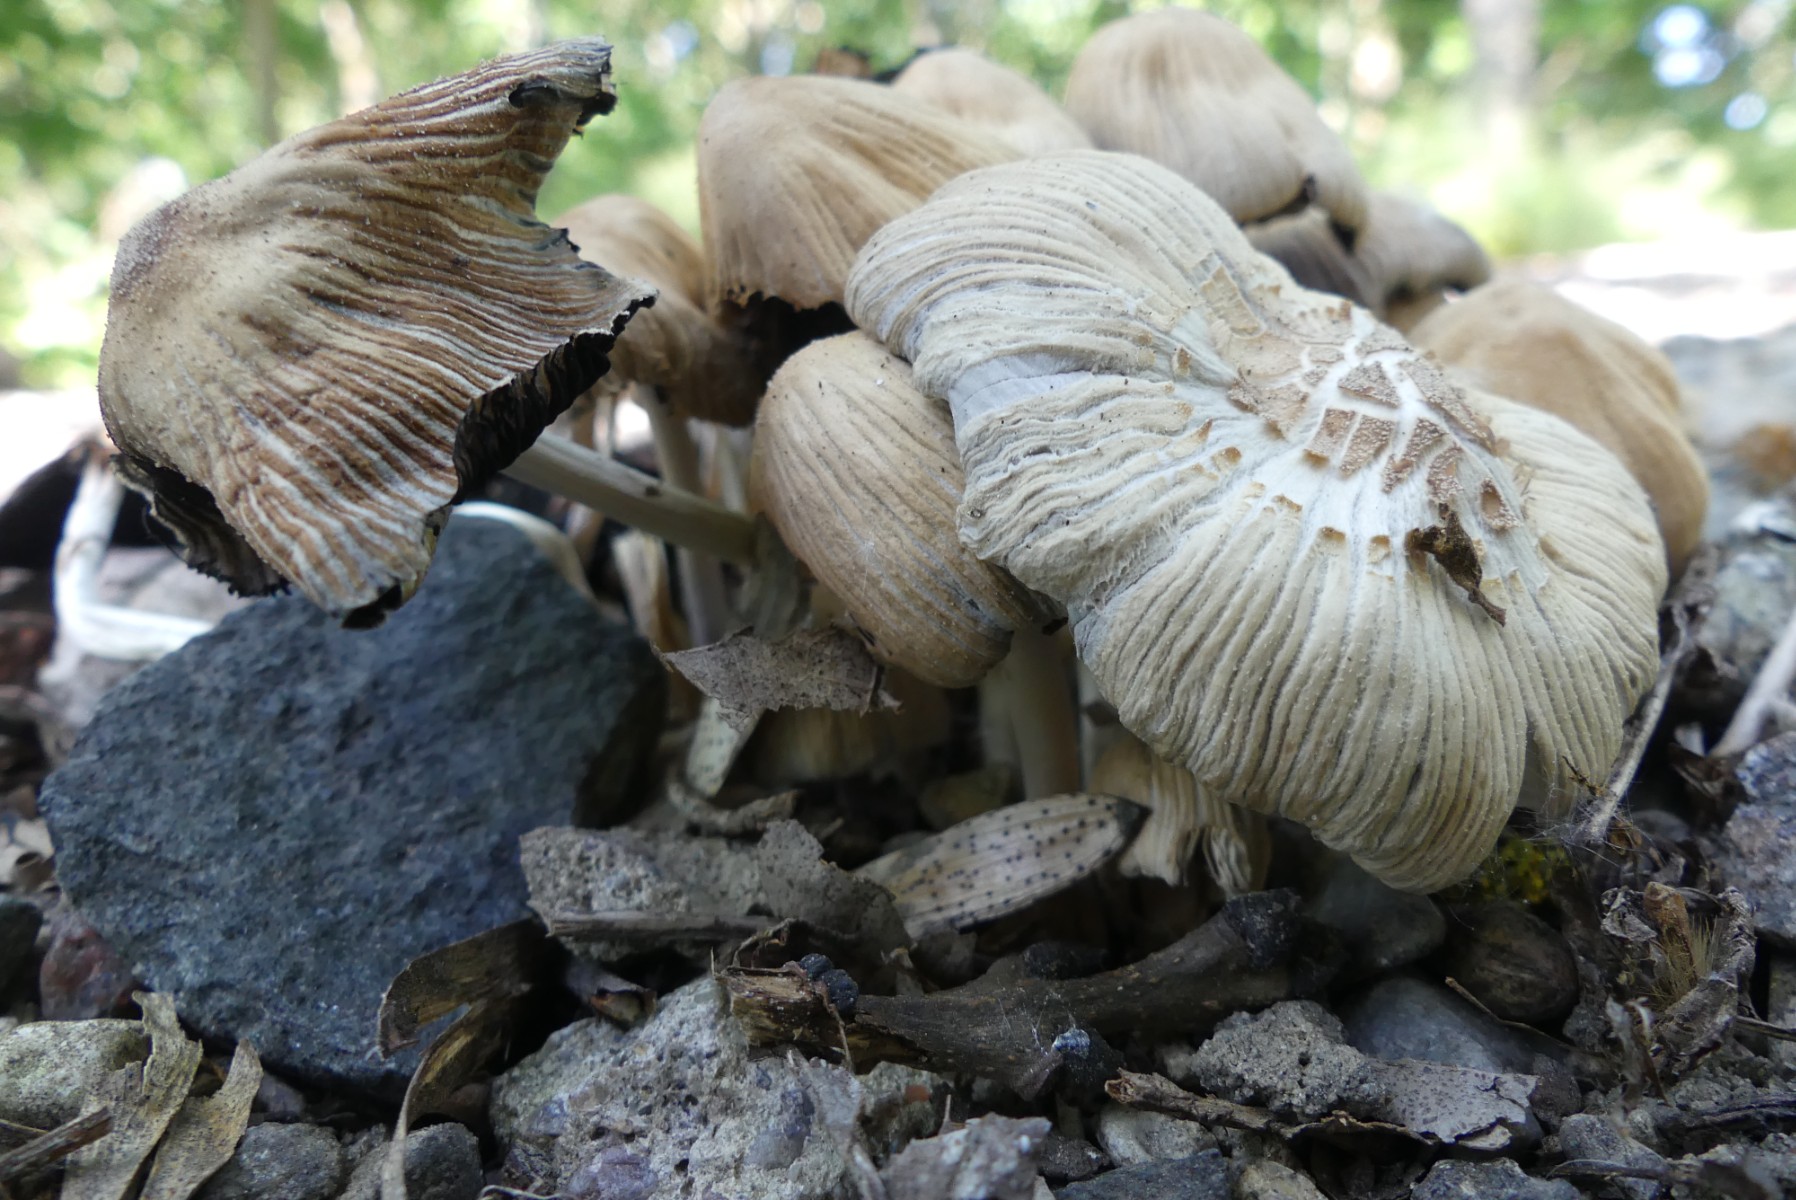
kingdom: Fungi
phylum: Basidiomycota
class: Agaricomycetes
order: Agaricales
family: Psathyrellaceae
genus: Coprinellus
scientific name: Coprinellus
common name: blækhat
